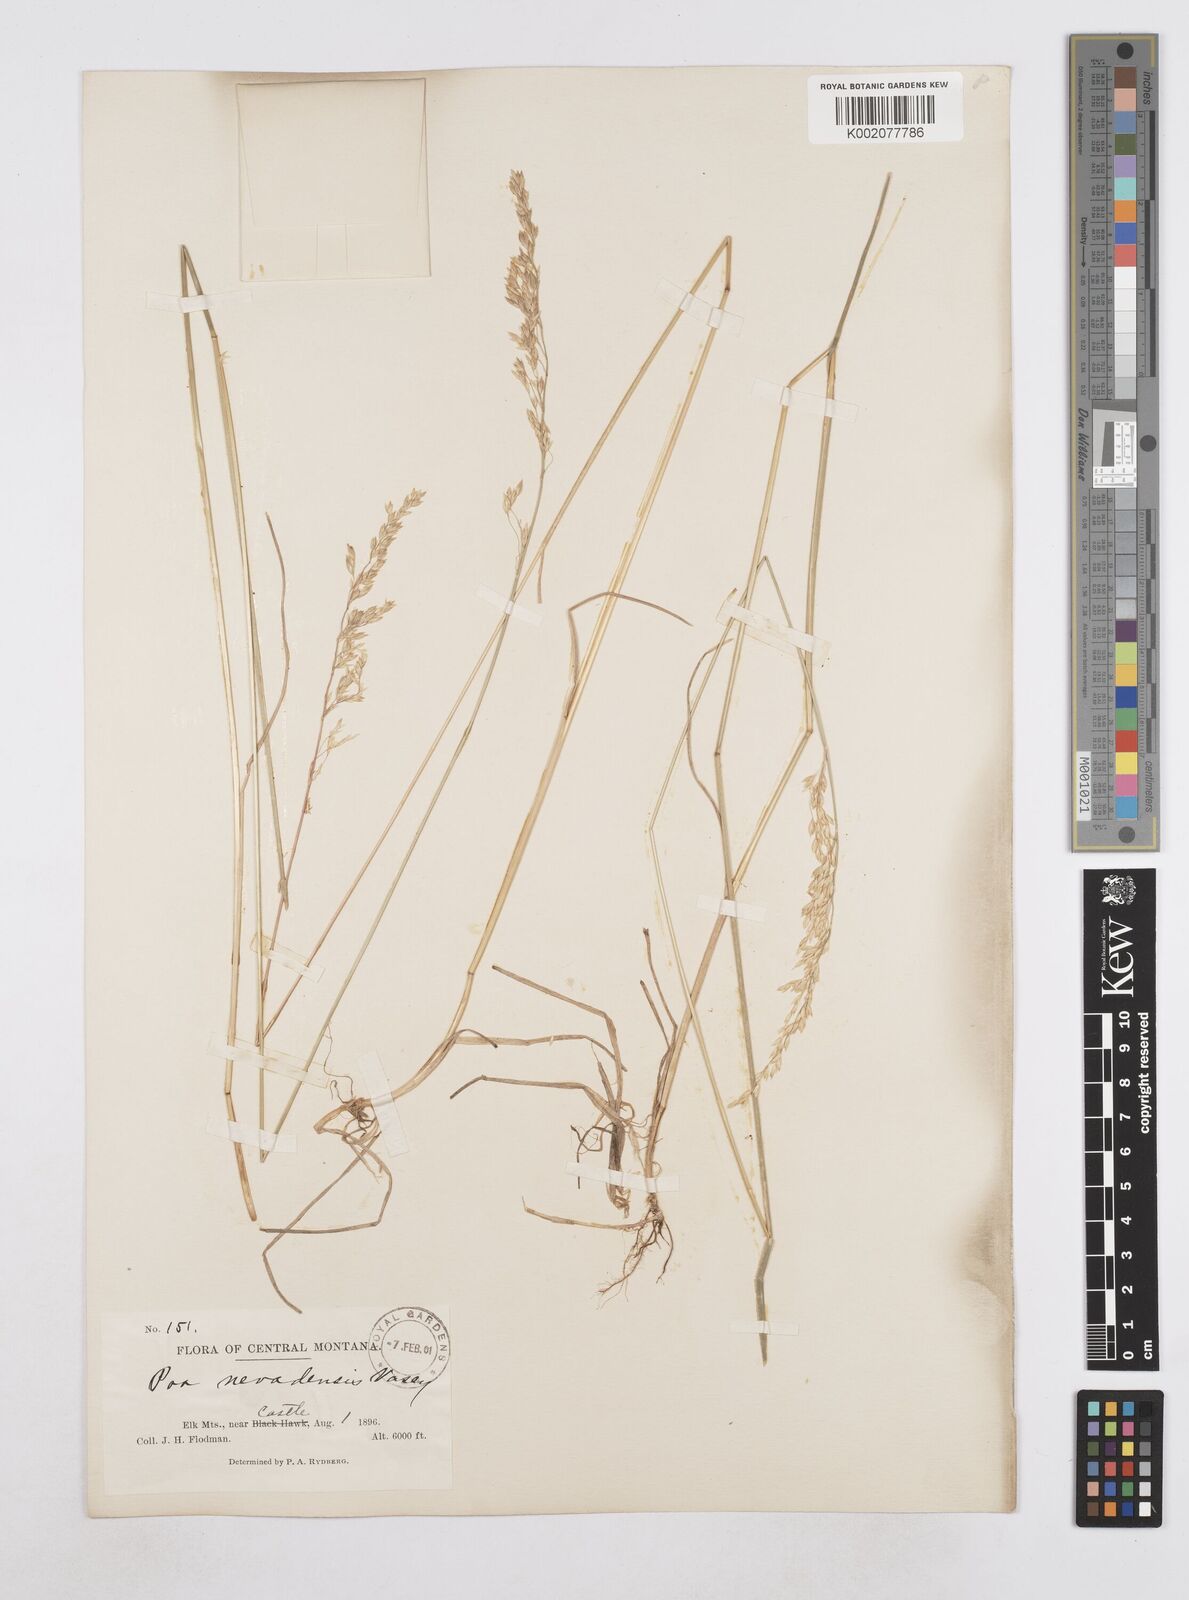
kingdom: Plantae
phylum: Tracheophyta
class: Liliopsida
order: Poales
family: Poaceae
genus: Poa
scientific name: Poa secunda
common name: Sandberg bluegrass
